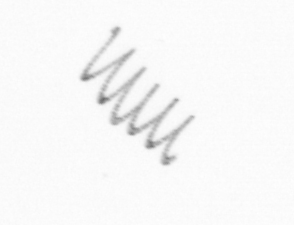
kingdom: Chromista
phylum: Ochrophyta
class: Bacillariophyceae
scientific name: Bacillariophyceae
